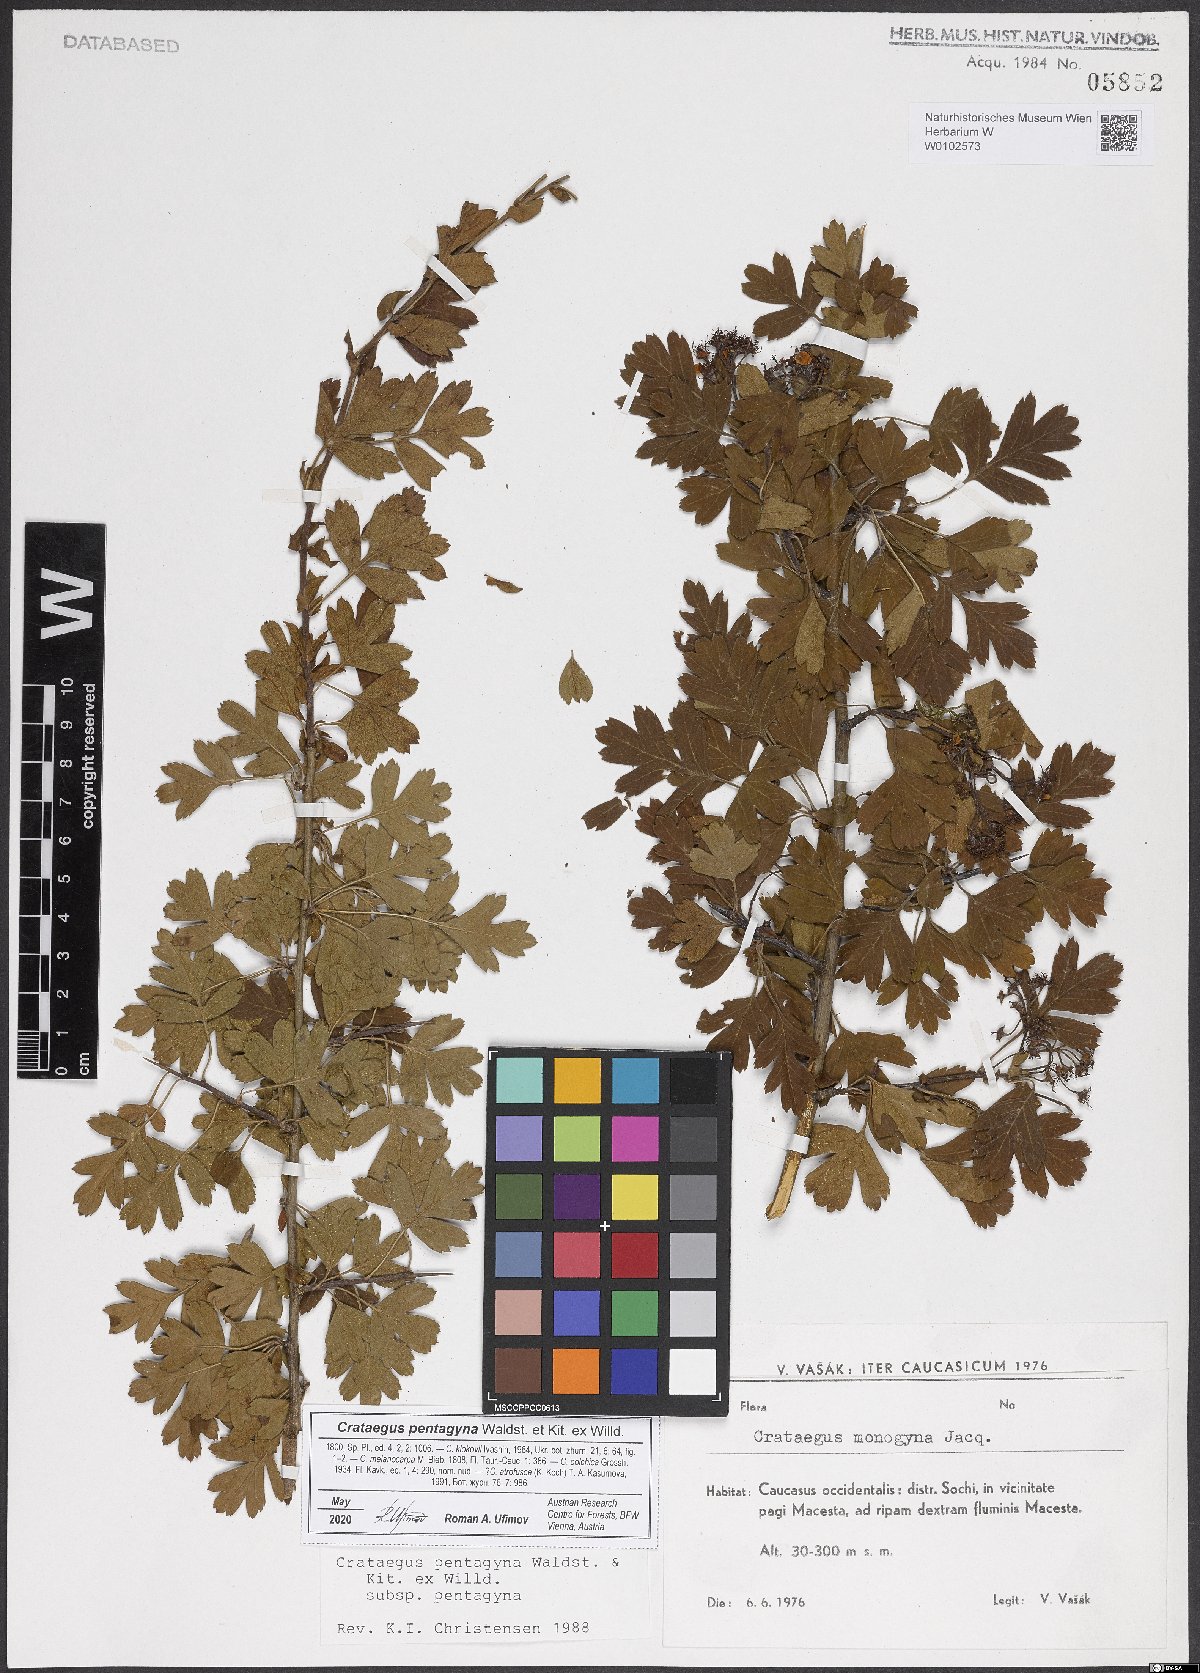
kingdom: Plantae
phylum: Tracheophyta
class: Magnoliopsida
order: Rosales
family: Rosaceae
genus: Crataegus
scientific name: Crataegus pentagyna
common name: Small-flowered black hawthorn
